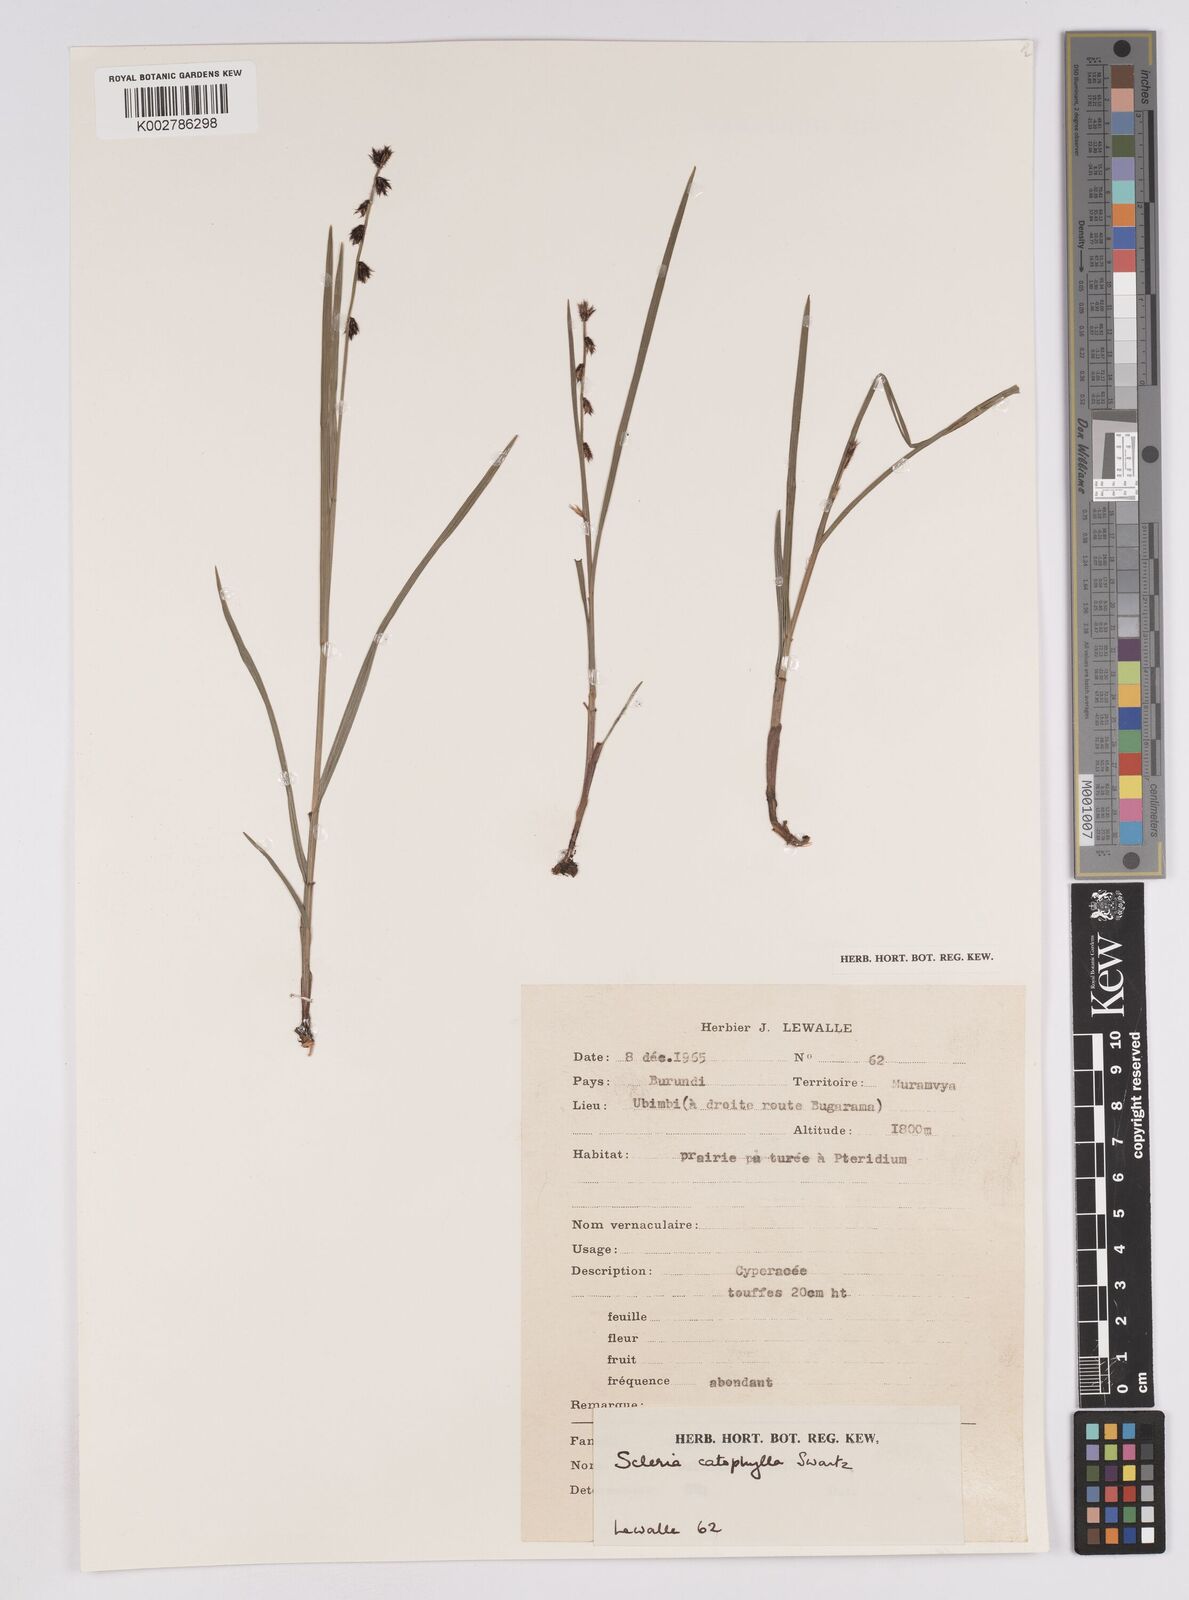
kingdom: Plantae
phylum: Tracheophyta
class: Liliopsida
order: Poales
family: Cyperaceae
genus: Scleria
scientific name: Scleria brownii
